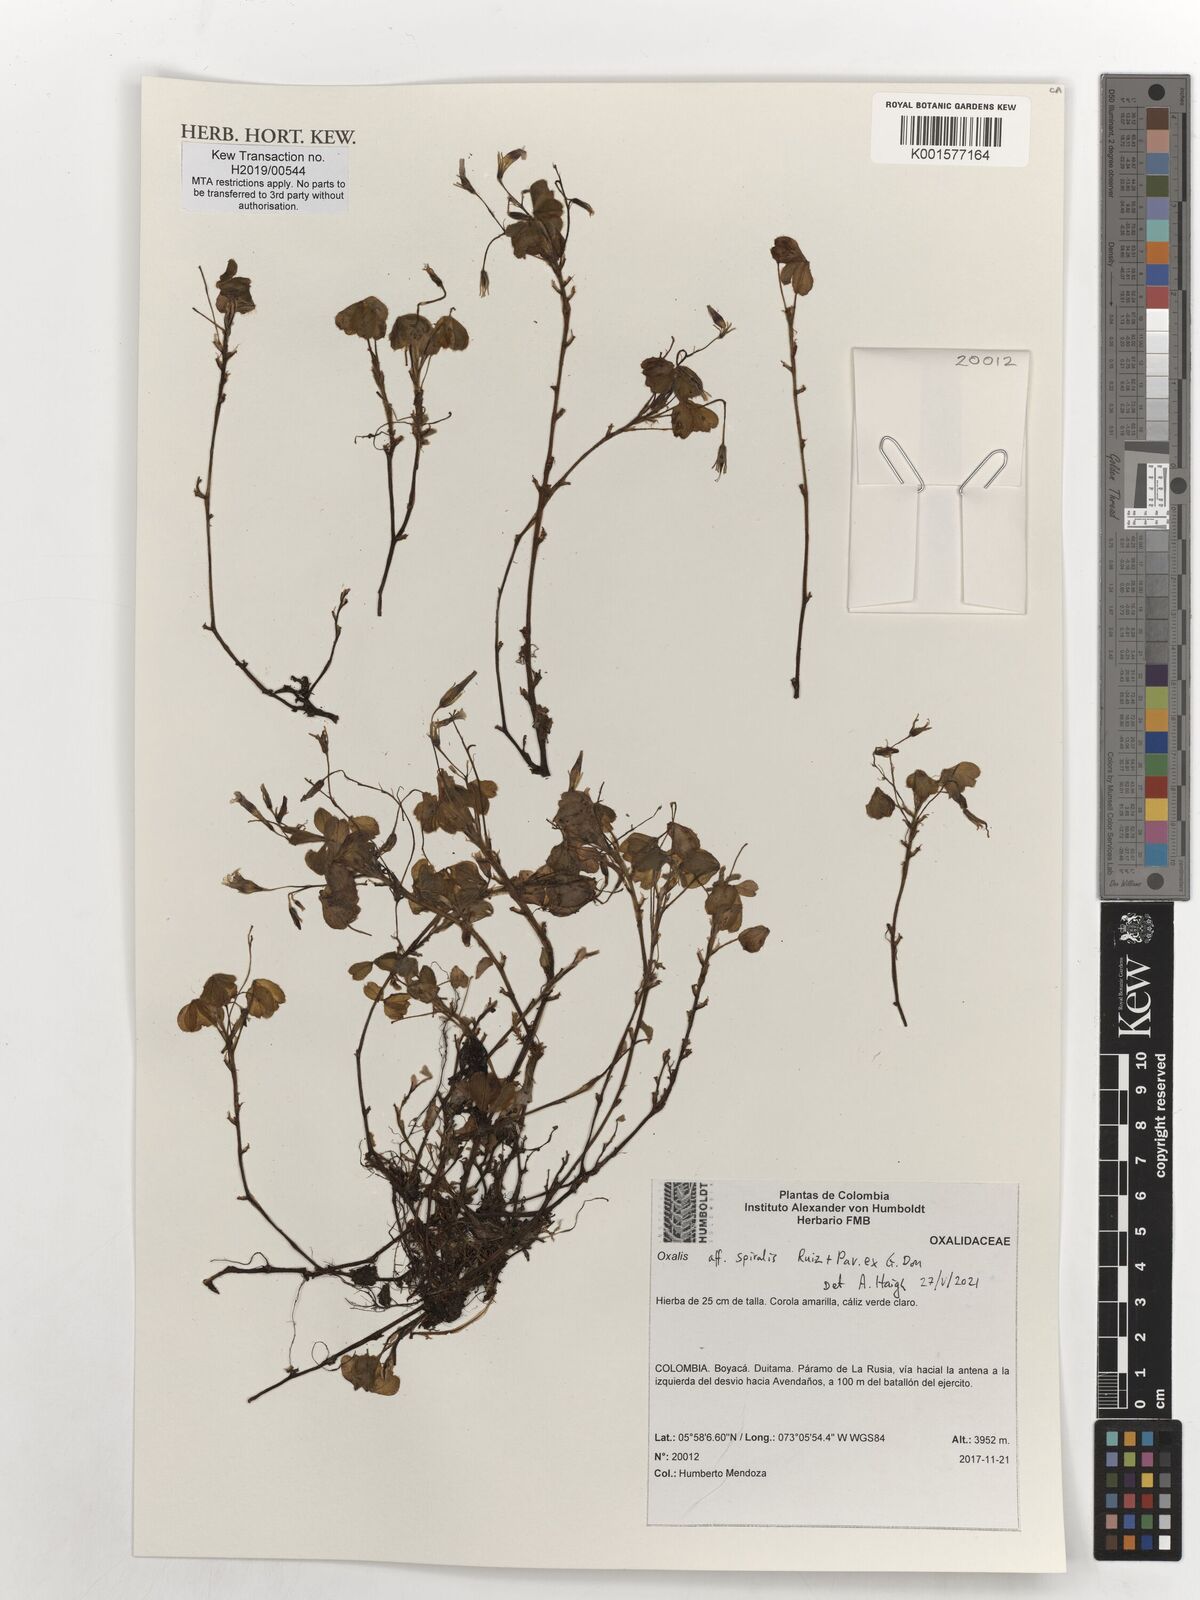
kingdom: Plantae
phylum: Tracheophyta
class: Magnoliopsida
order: Oxalidales
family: Oxalidaceae
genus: Oxalis
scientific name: Oxalis spiralis
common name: Spiral sorrel
